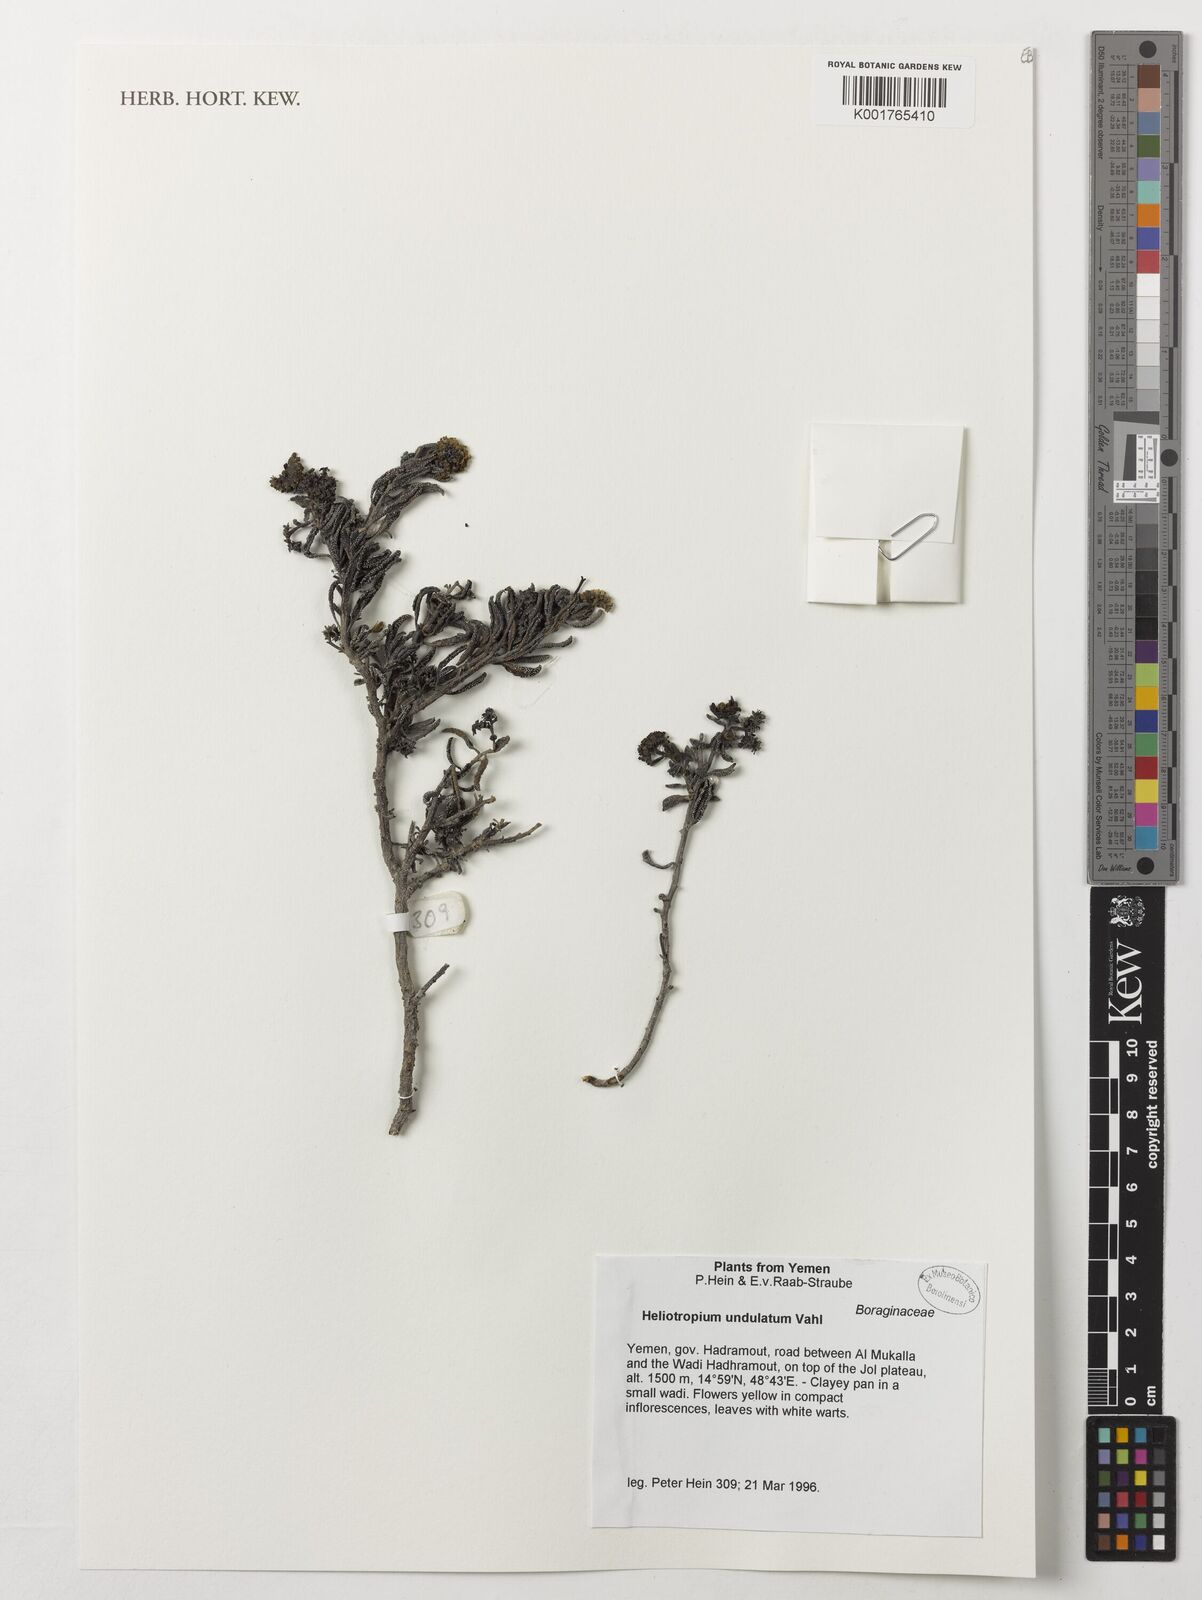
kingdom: Plantae
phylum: Tracheophyta
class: Magnoliopsida
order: Boraginales
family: Heliotropiaceae
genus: Heliotropium
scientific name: Heliotropium bacciferum
